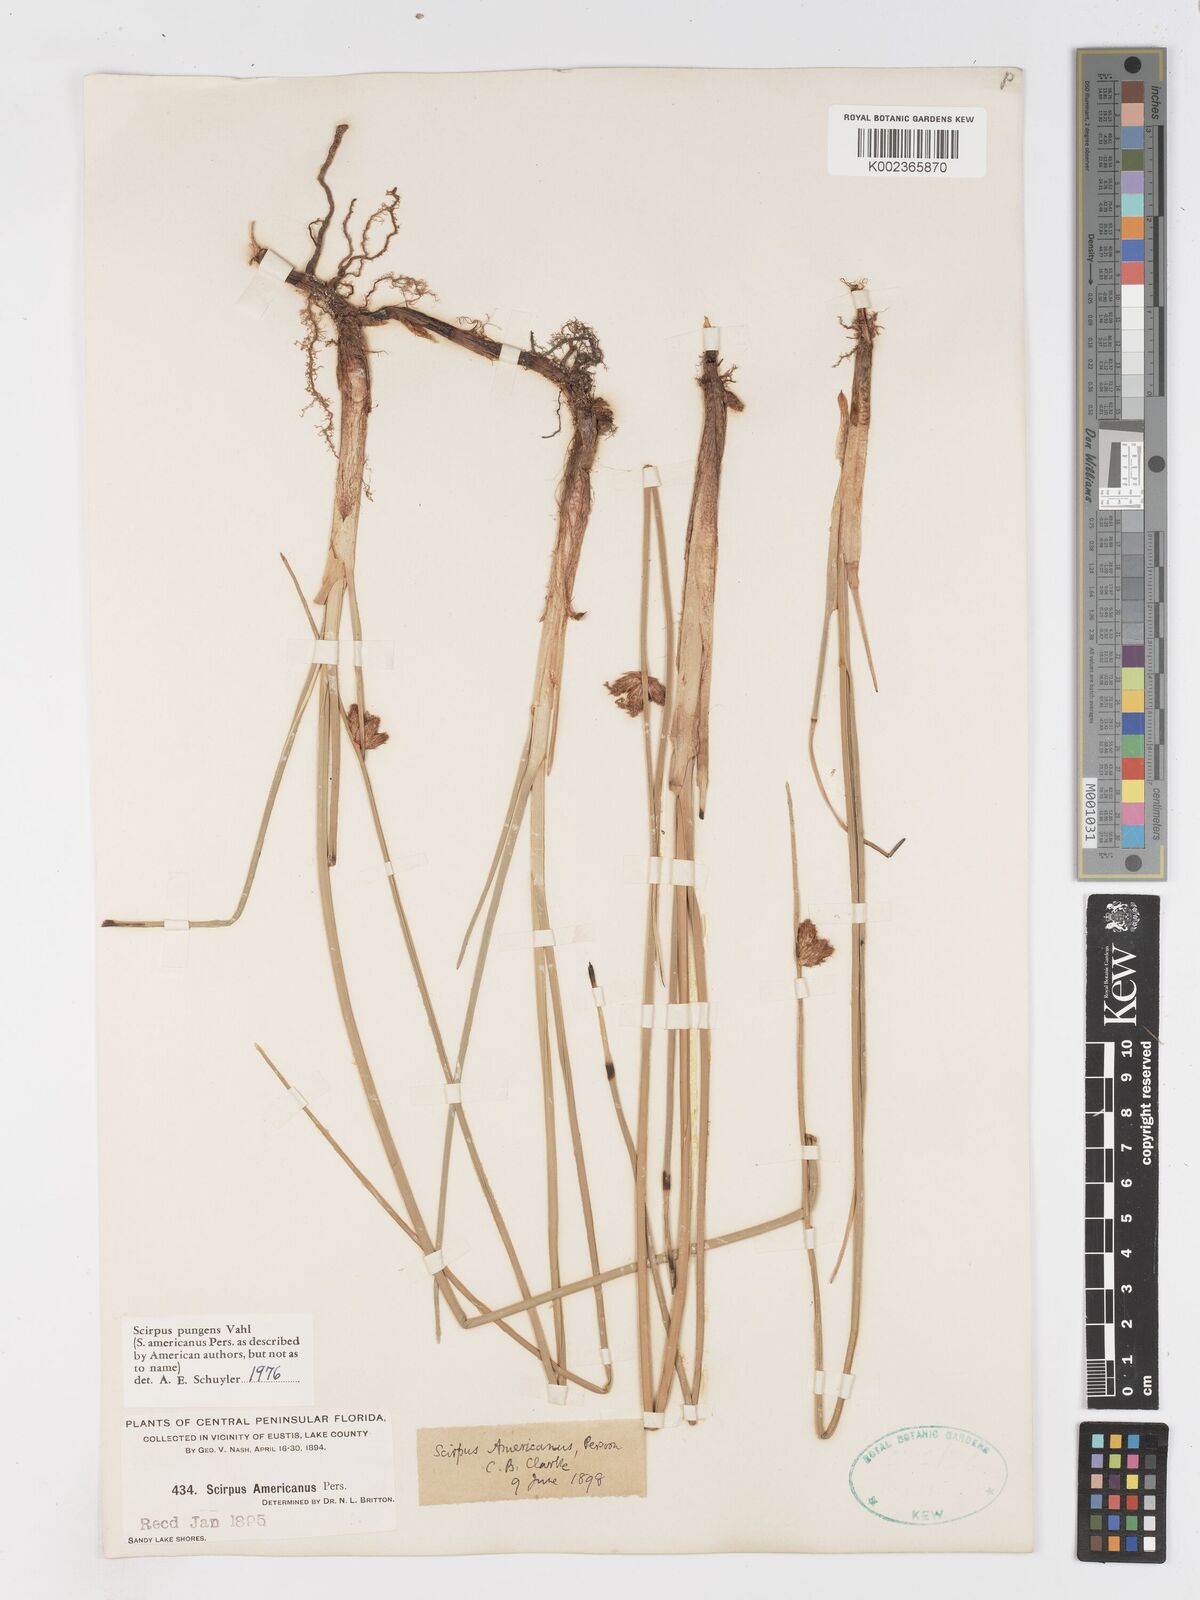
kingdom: Plantae
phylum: Tracheophyta
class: Liliopsida
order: Poales
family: Cyperaceae
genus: Schoenoplectus
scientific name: Schoenoplectus pungens
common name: Sharp club-rush
